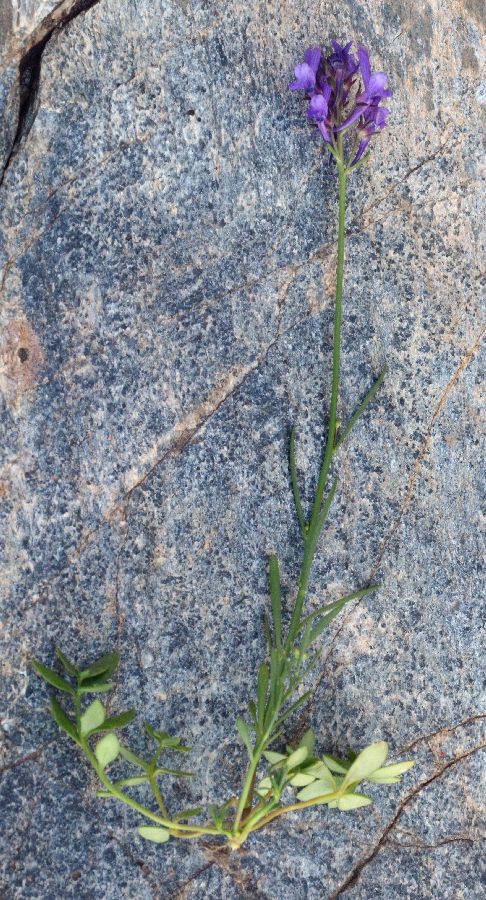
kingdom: Plantae
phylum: Tracheophyta
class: Magnoliopsida
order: Lamiales
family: Plantaginaceae
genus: Linaria
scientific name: Linaria pelisseriana
